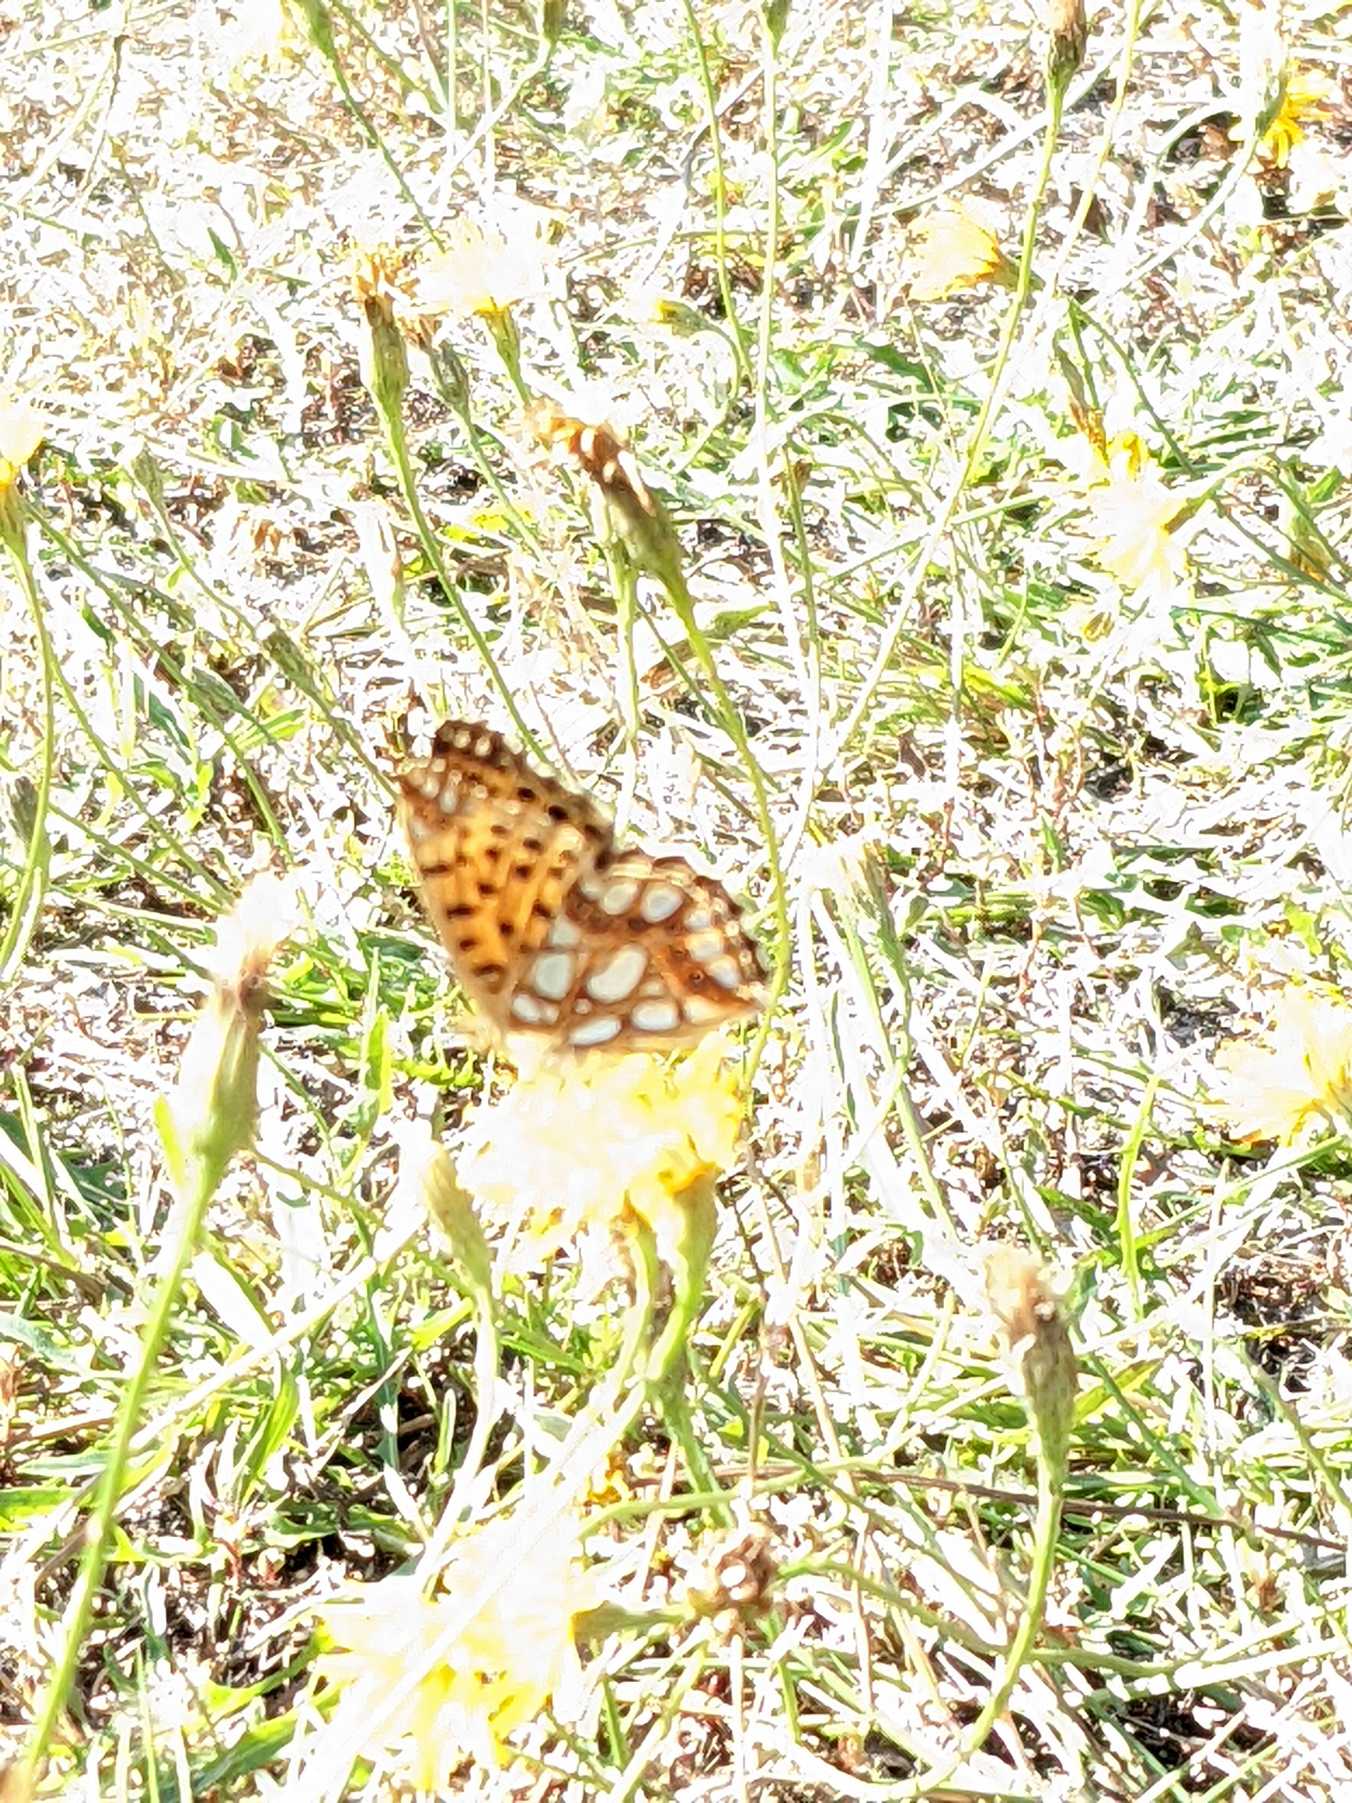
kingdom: Animalia
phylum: Arthropoda
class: Insecta
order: Lepidoptera
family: Nymphalidae
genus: Issoria
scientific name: Issoria lathonia
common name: Storplettet perlemorsommerfugl
